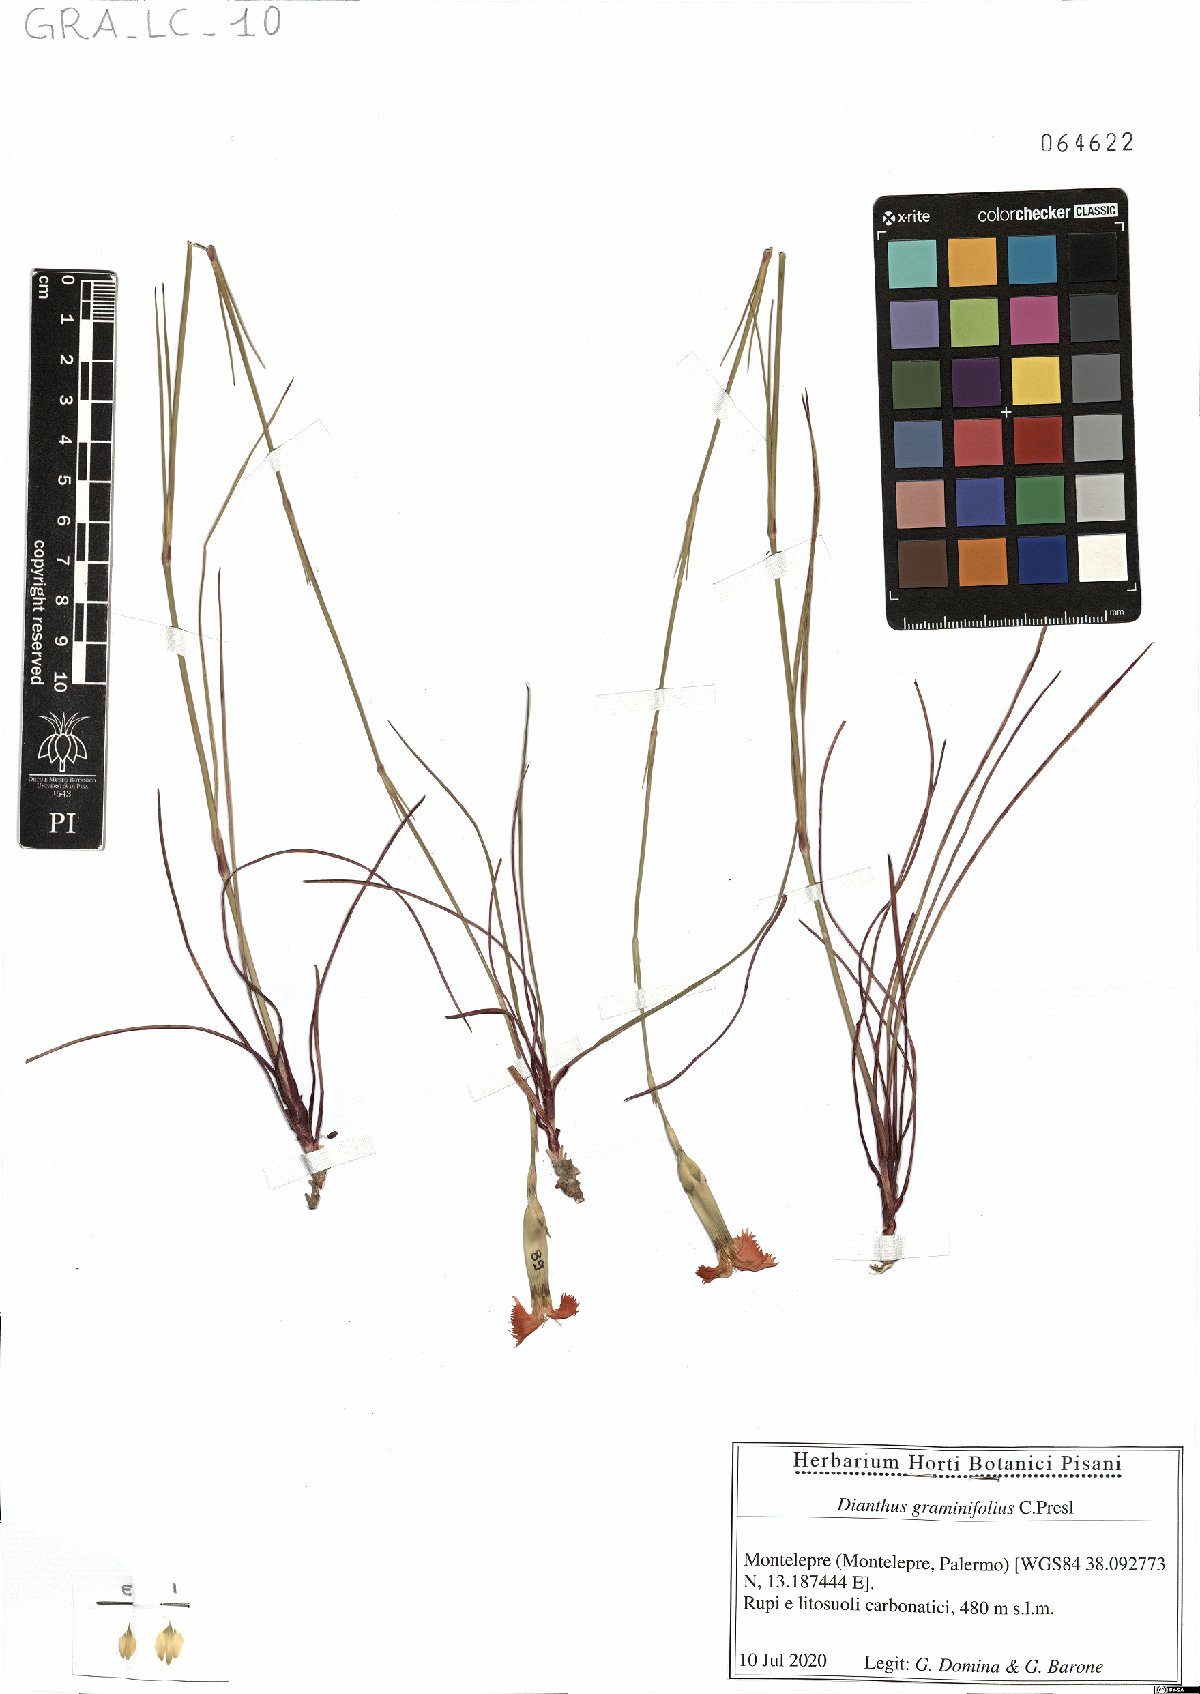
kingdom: Plantae
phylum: Tracheophyta
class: Magnoliopsida
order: Caryophyllales
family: Caryophyllaceae
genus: Dianthus
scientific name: Dianthus graminifolius
